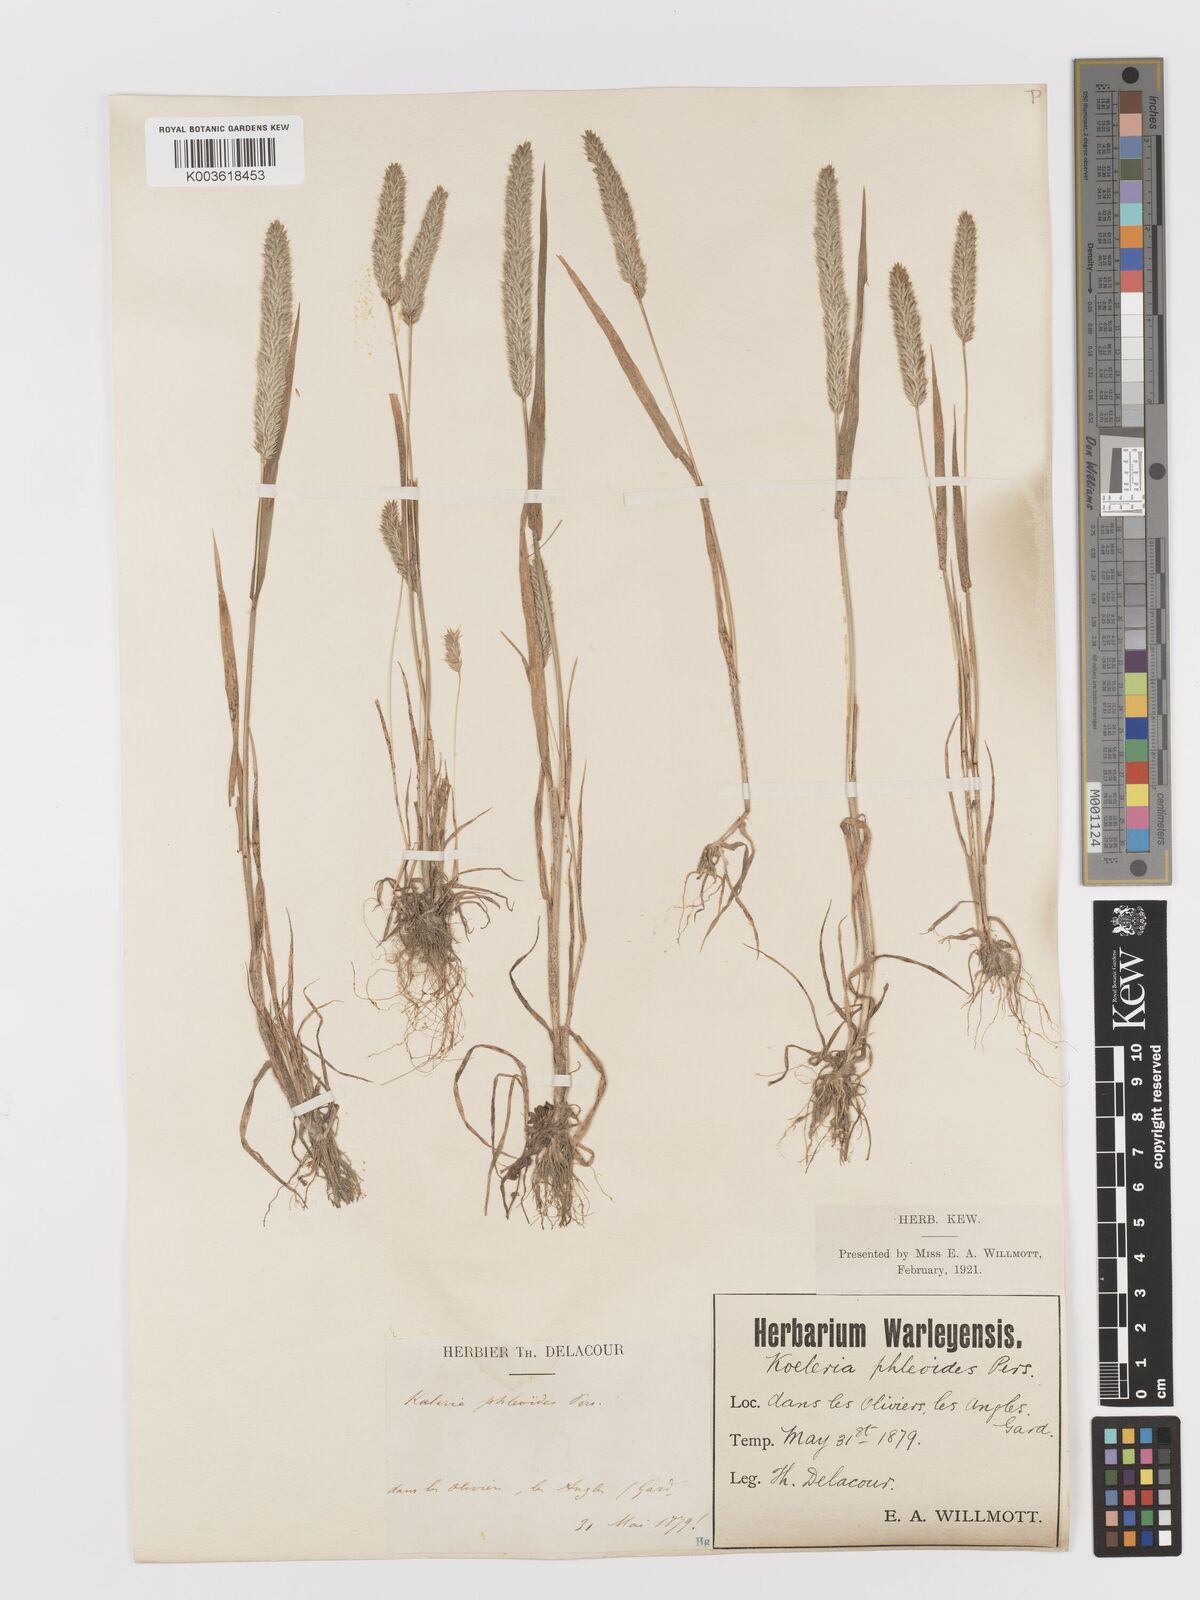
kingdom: Plantae
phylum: Tracheophyta
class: Liliopsida
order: Poales
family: Poaceae
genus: Rostraria
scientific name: Rostraria cristata
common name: Mediterranean hair-grass
